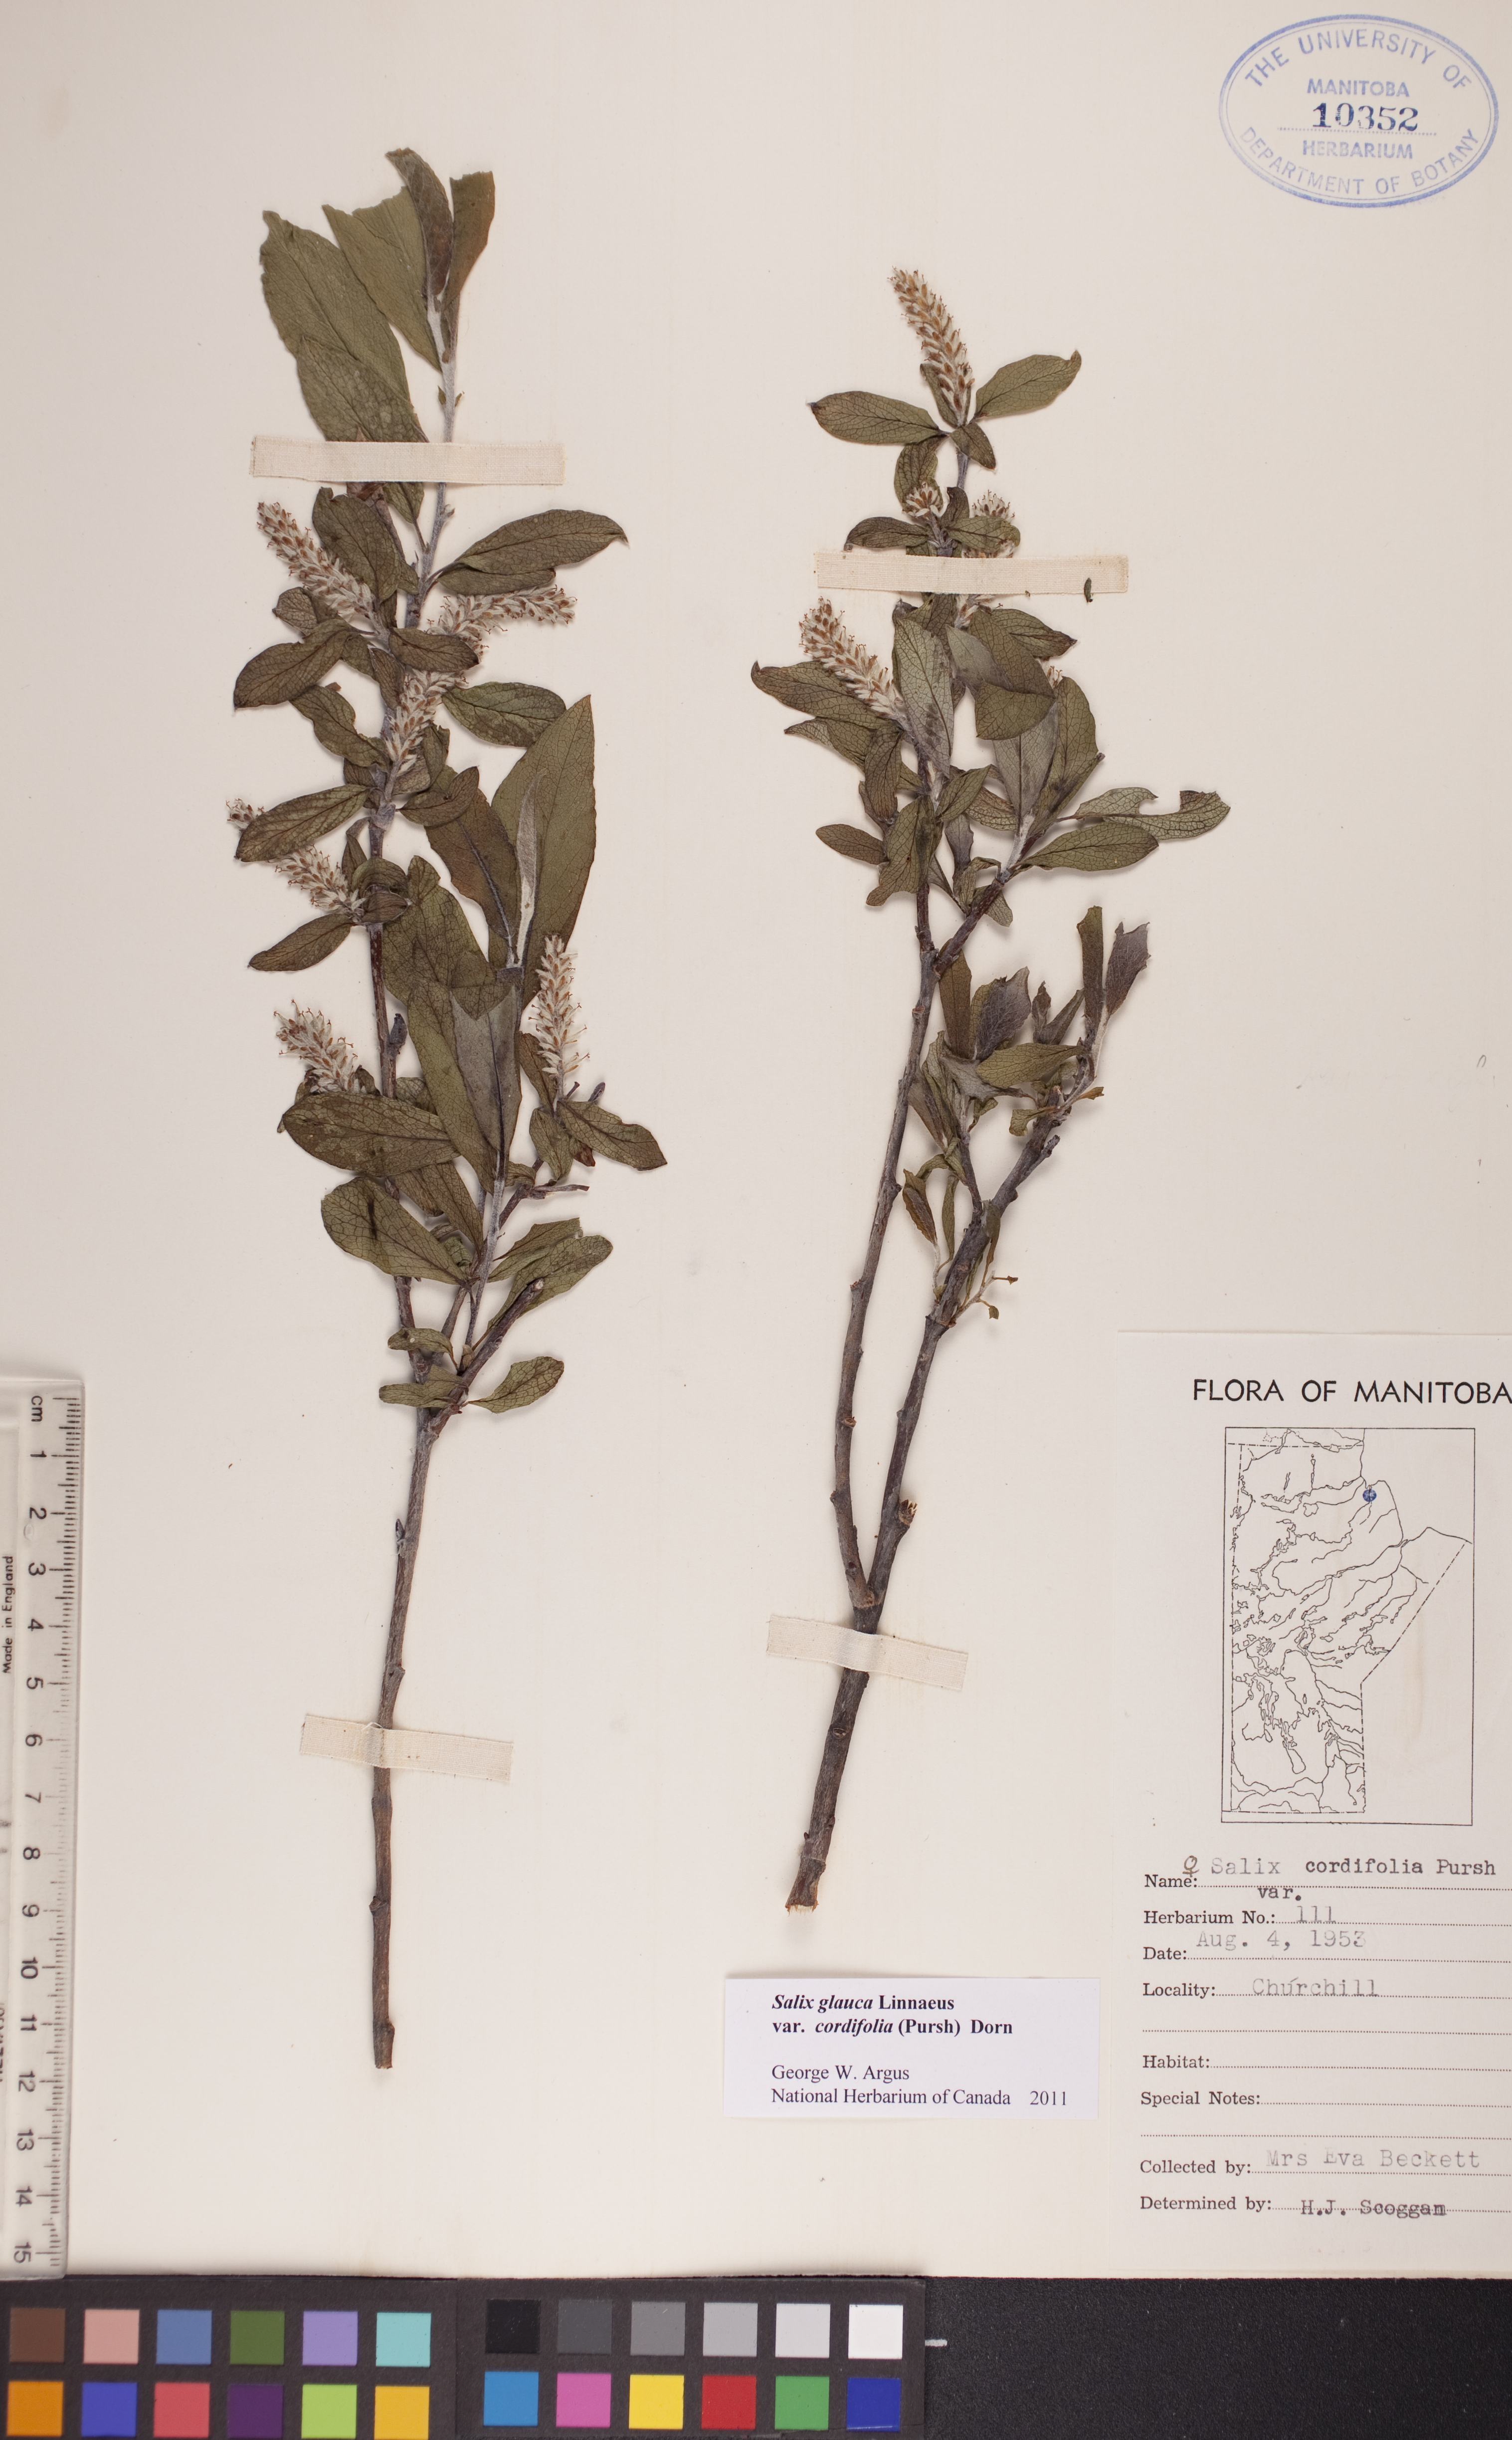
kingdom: Plantae
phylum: Tracheophyta
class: Magnoliopsida
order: Malpighiales
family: Salicaceae
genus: Salix
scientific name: Salix glauca
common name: Glaucous willow
